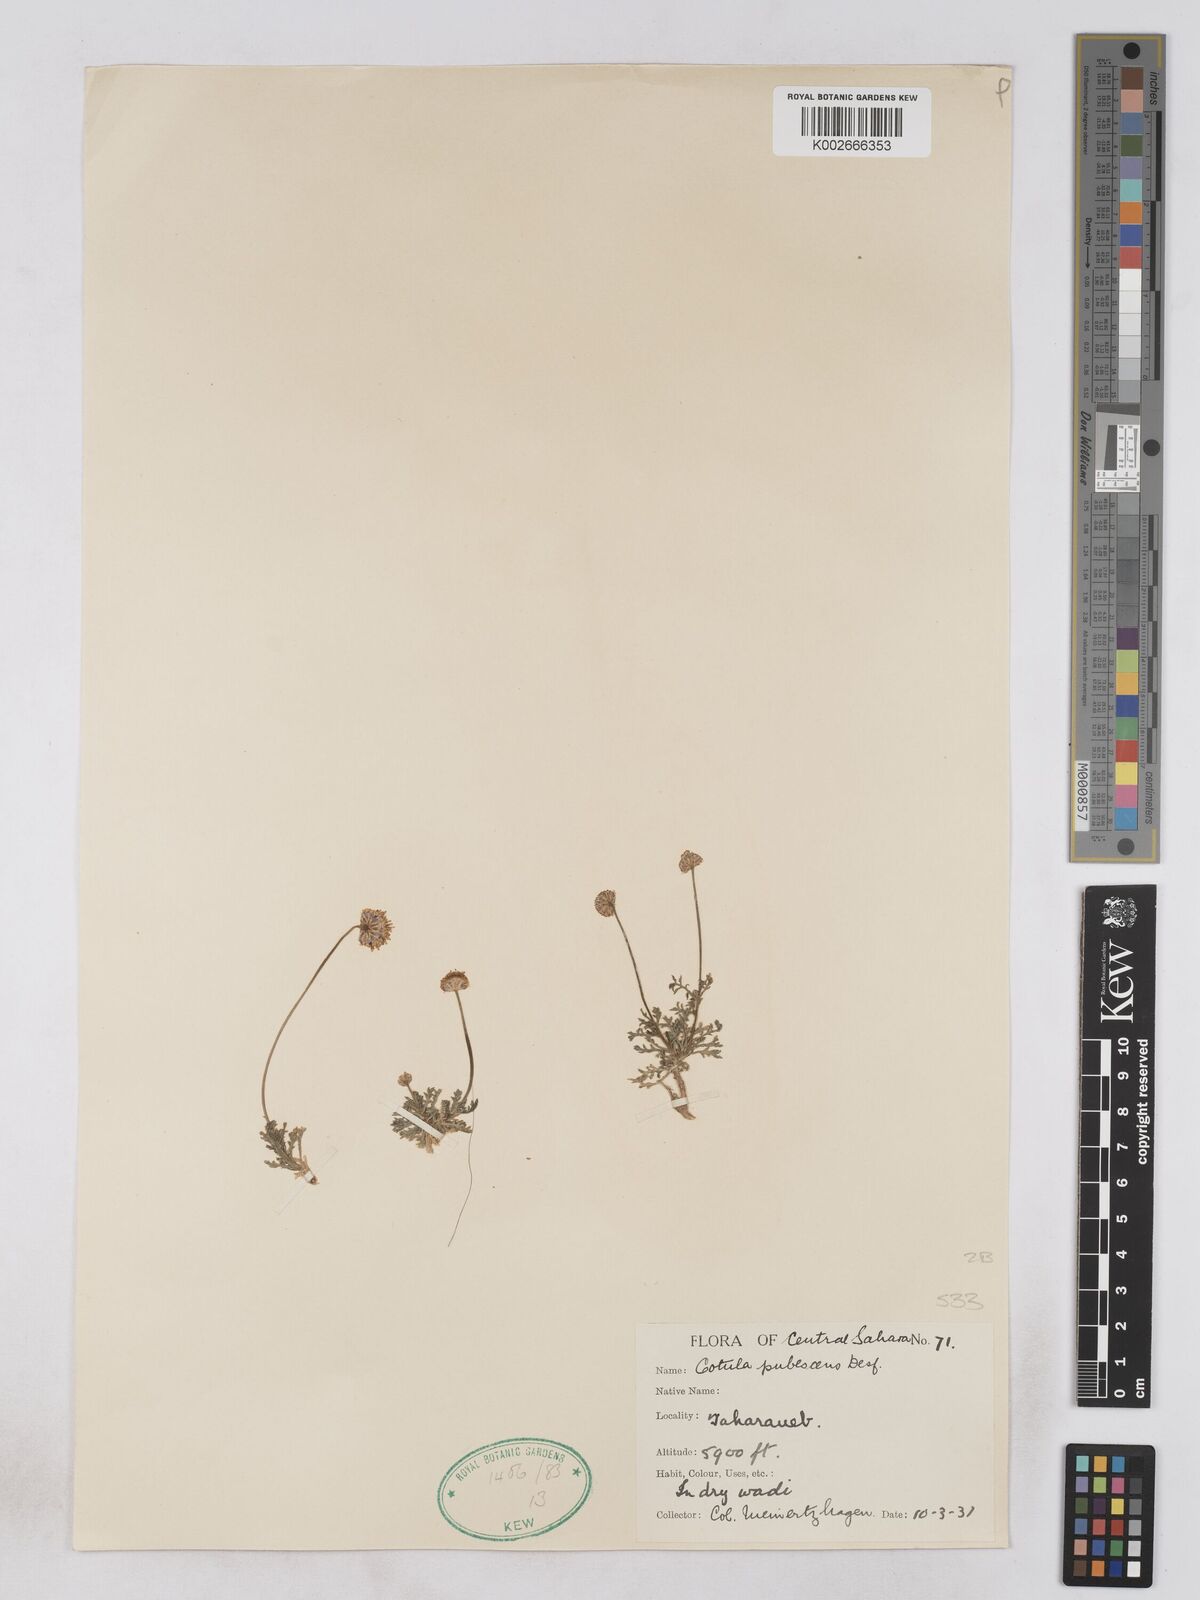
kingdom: Plantae
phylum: Tracheophyta
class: Magnoliopsida
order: Asterales
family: Asteraceae
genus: Otoglyphis
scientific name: Otoglyphis pubescens
